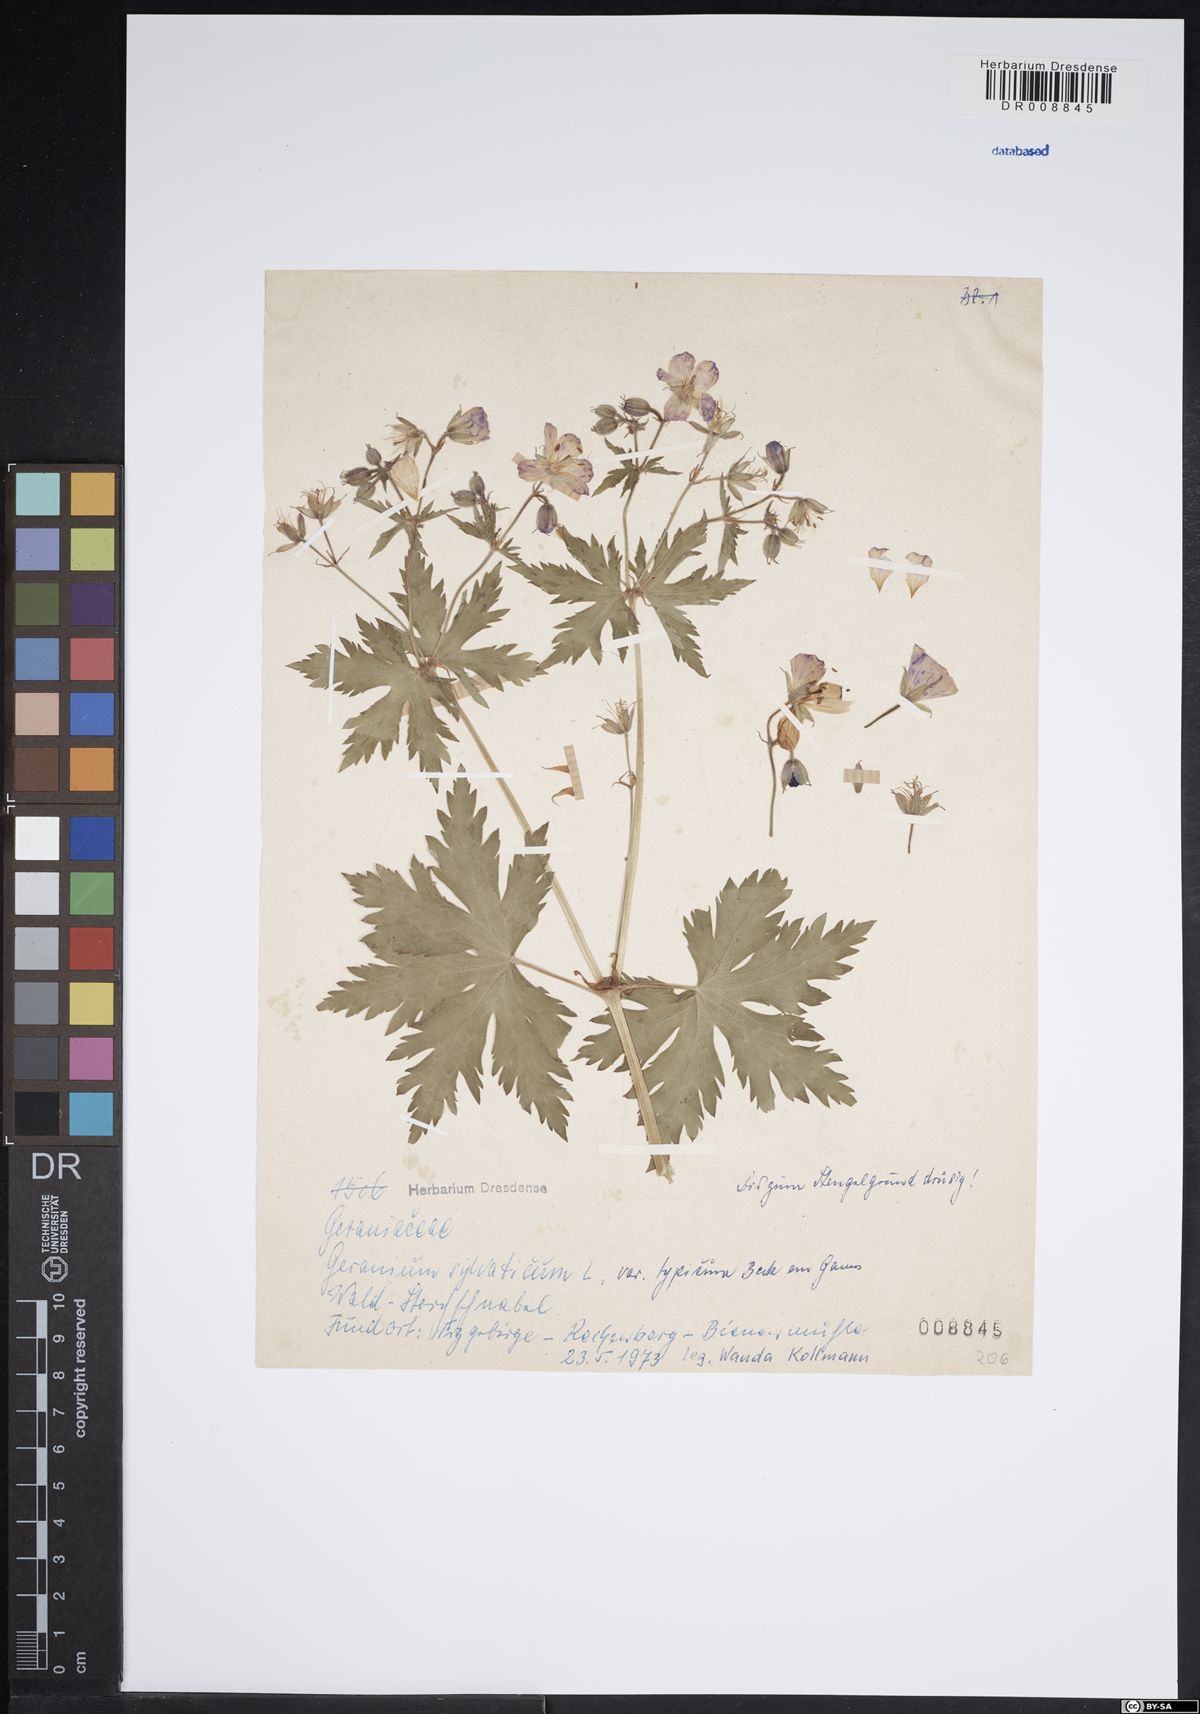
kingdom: Plantae
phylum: Tracheophyta
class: Magnoliopsida
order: Geraniales
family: Geraniaceae
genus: Geranium
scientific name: Geranium sylvaticum
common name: Wood crane's-bill
